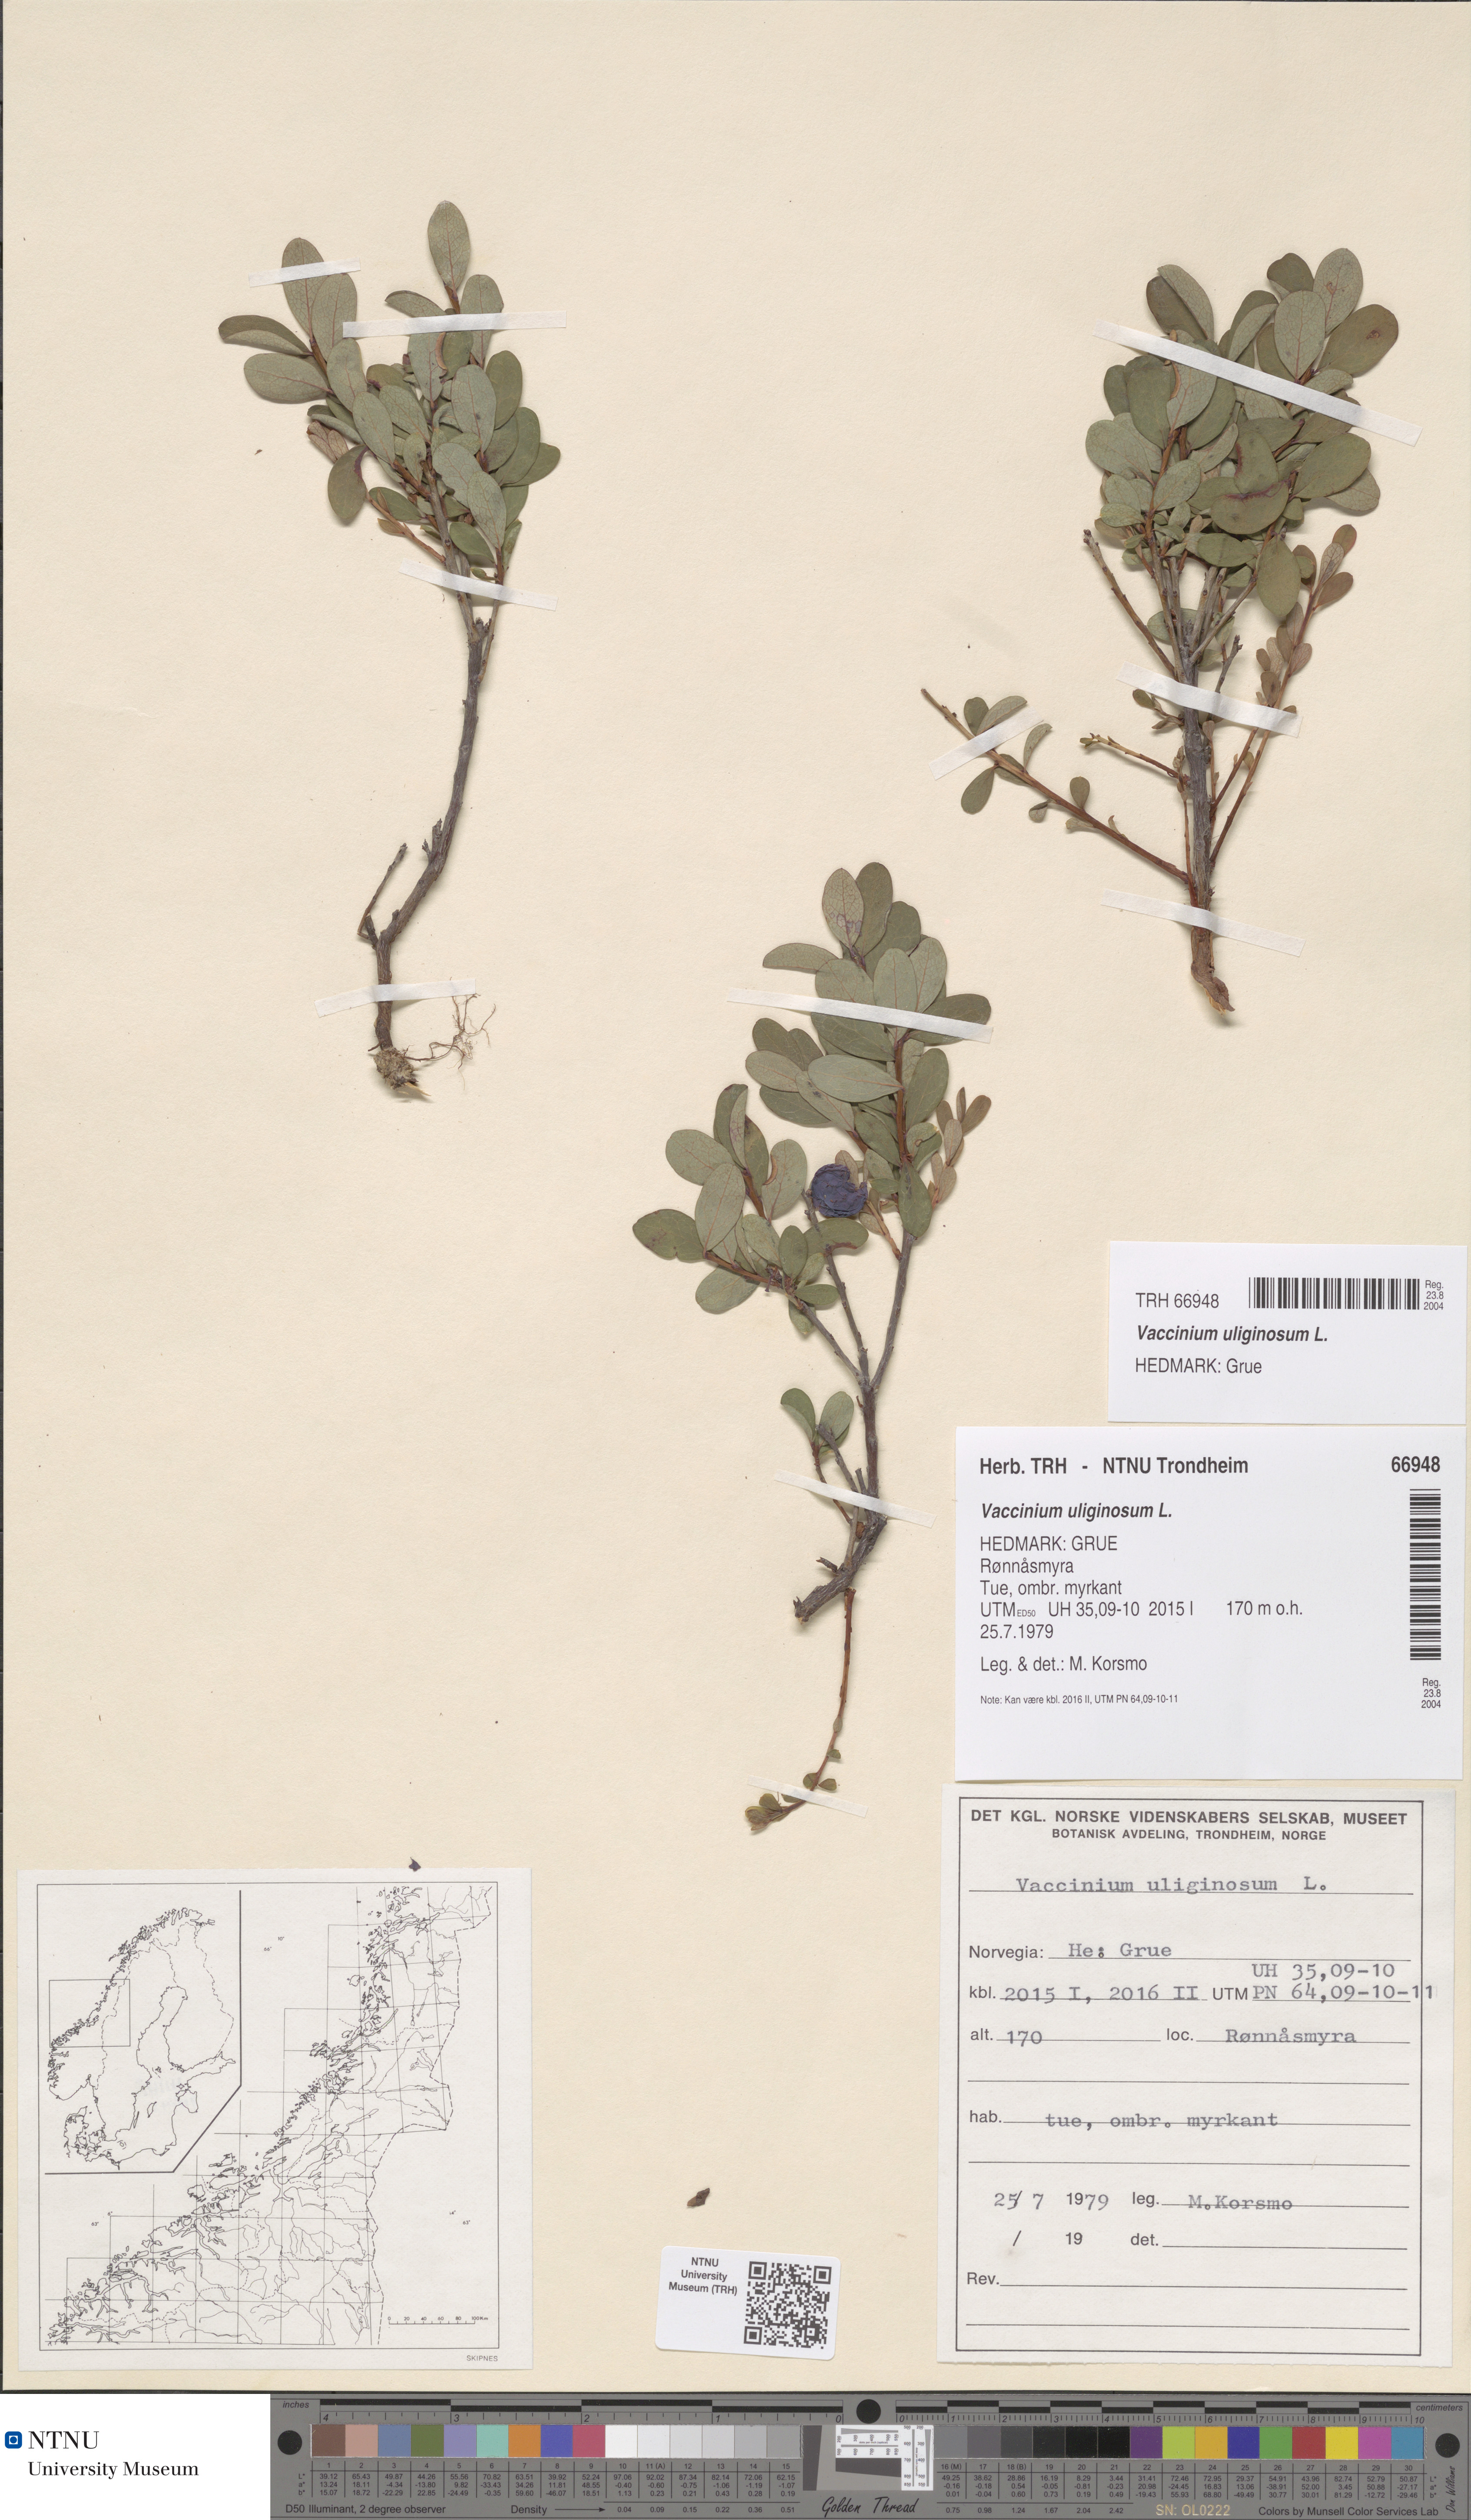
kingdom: Plantae
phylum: Tracheophyta
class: Magnoliopsida
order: Ericales
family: Ericaceae
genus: Vaccinium
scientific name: Vaccinium uliginosum
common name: Bog bilberry
